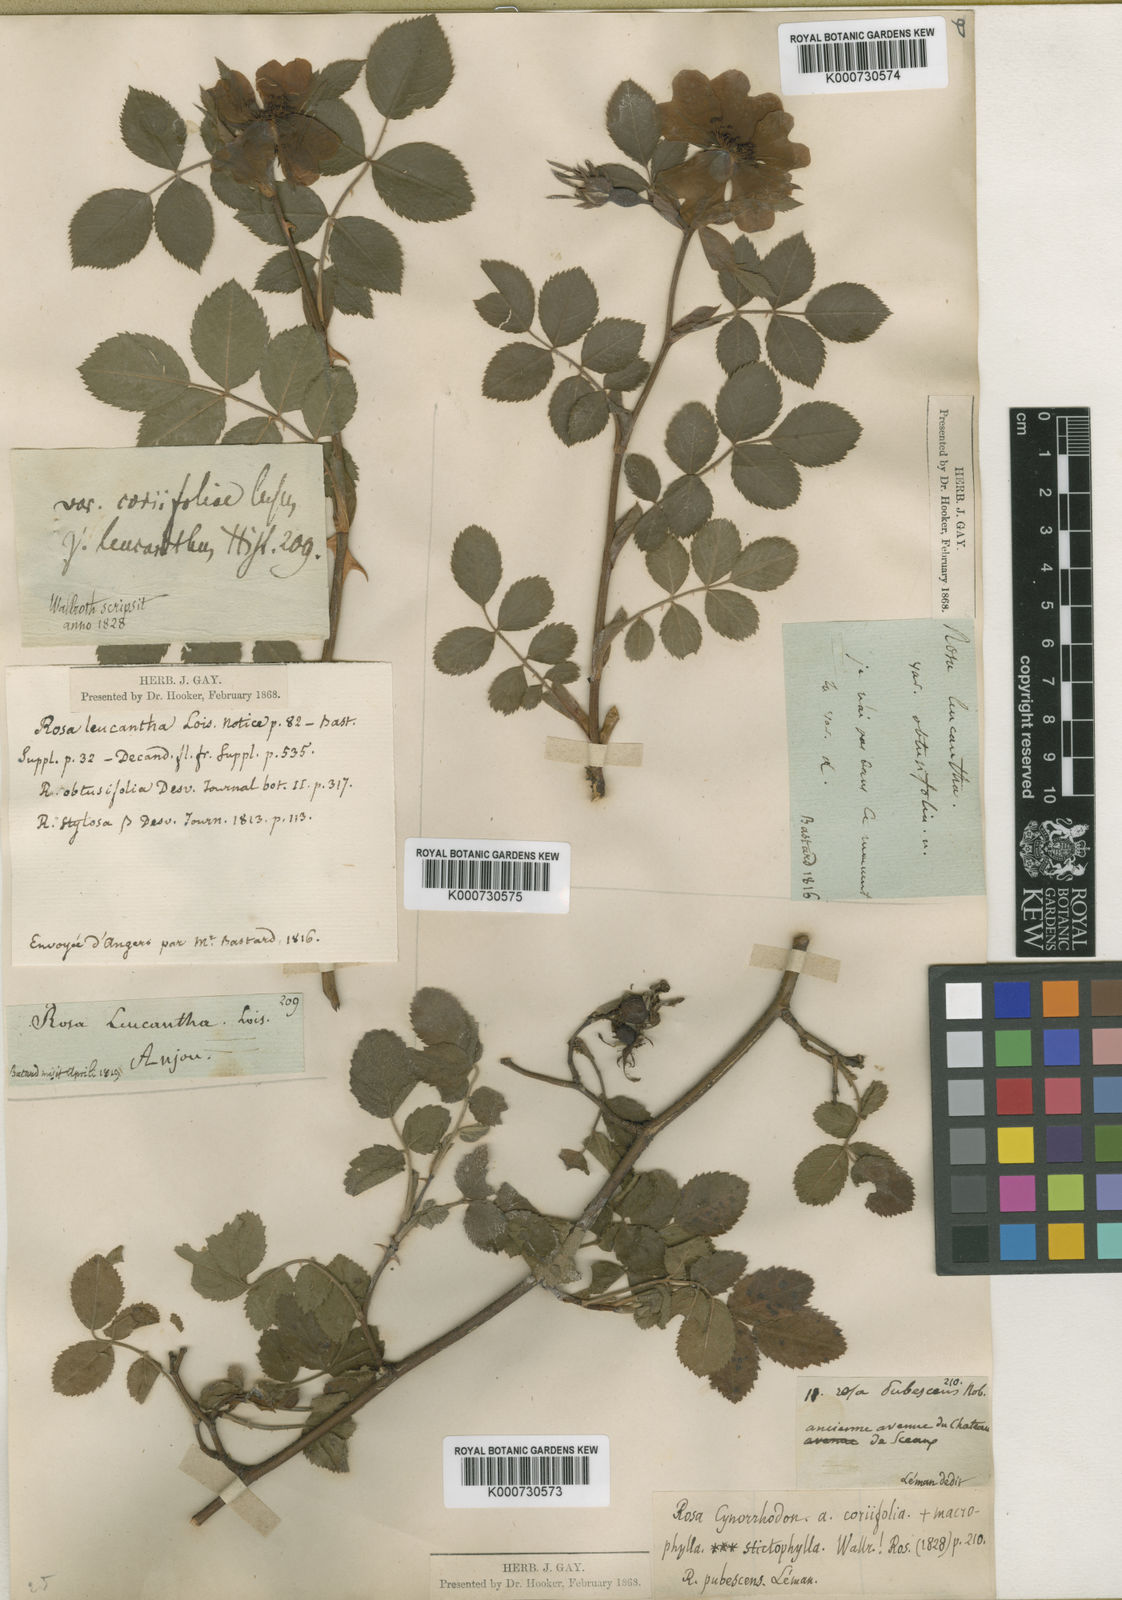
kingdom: Plantae
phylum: Tracheophyta
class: Magnoliopsida
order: Rosales
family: Rosaceae
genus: Rosa
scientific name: Rosa canina
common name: Dog rose
